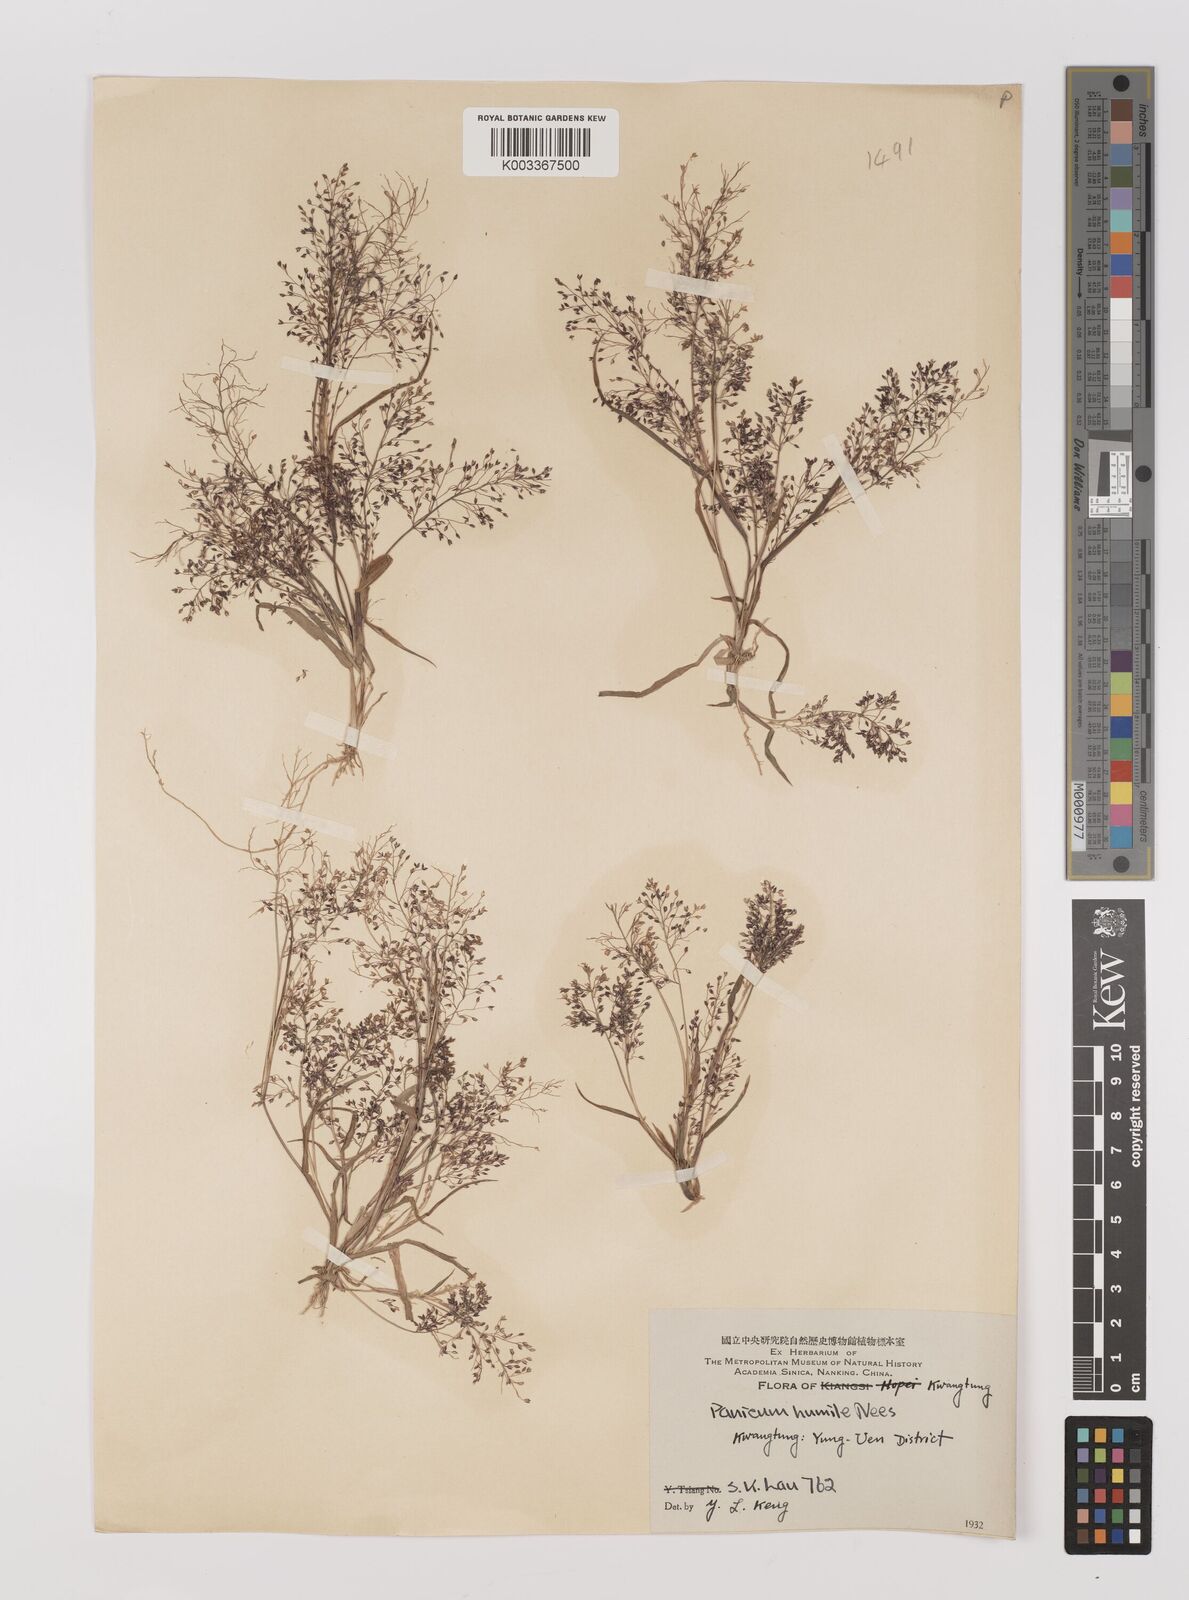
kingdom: Plantae
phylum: Tracheophyta
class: Liliopsida
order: Poales
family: Poaceae
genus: Panicum
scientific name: Panicum
